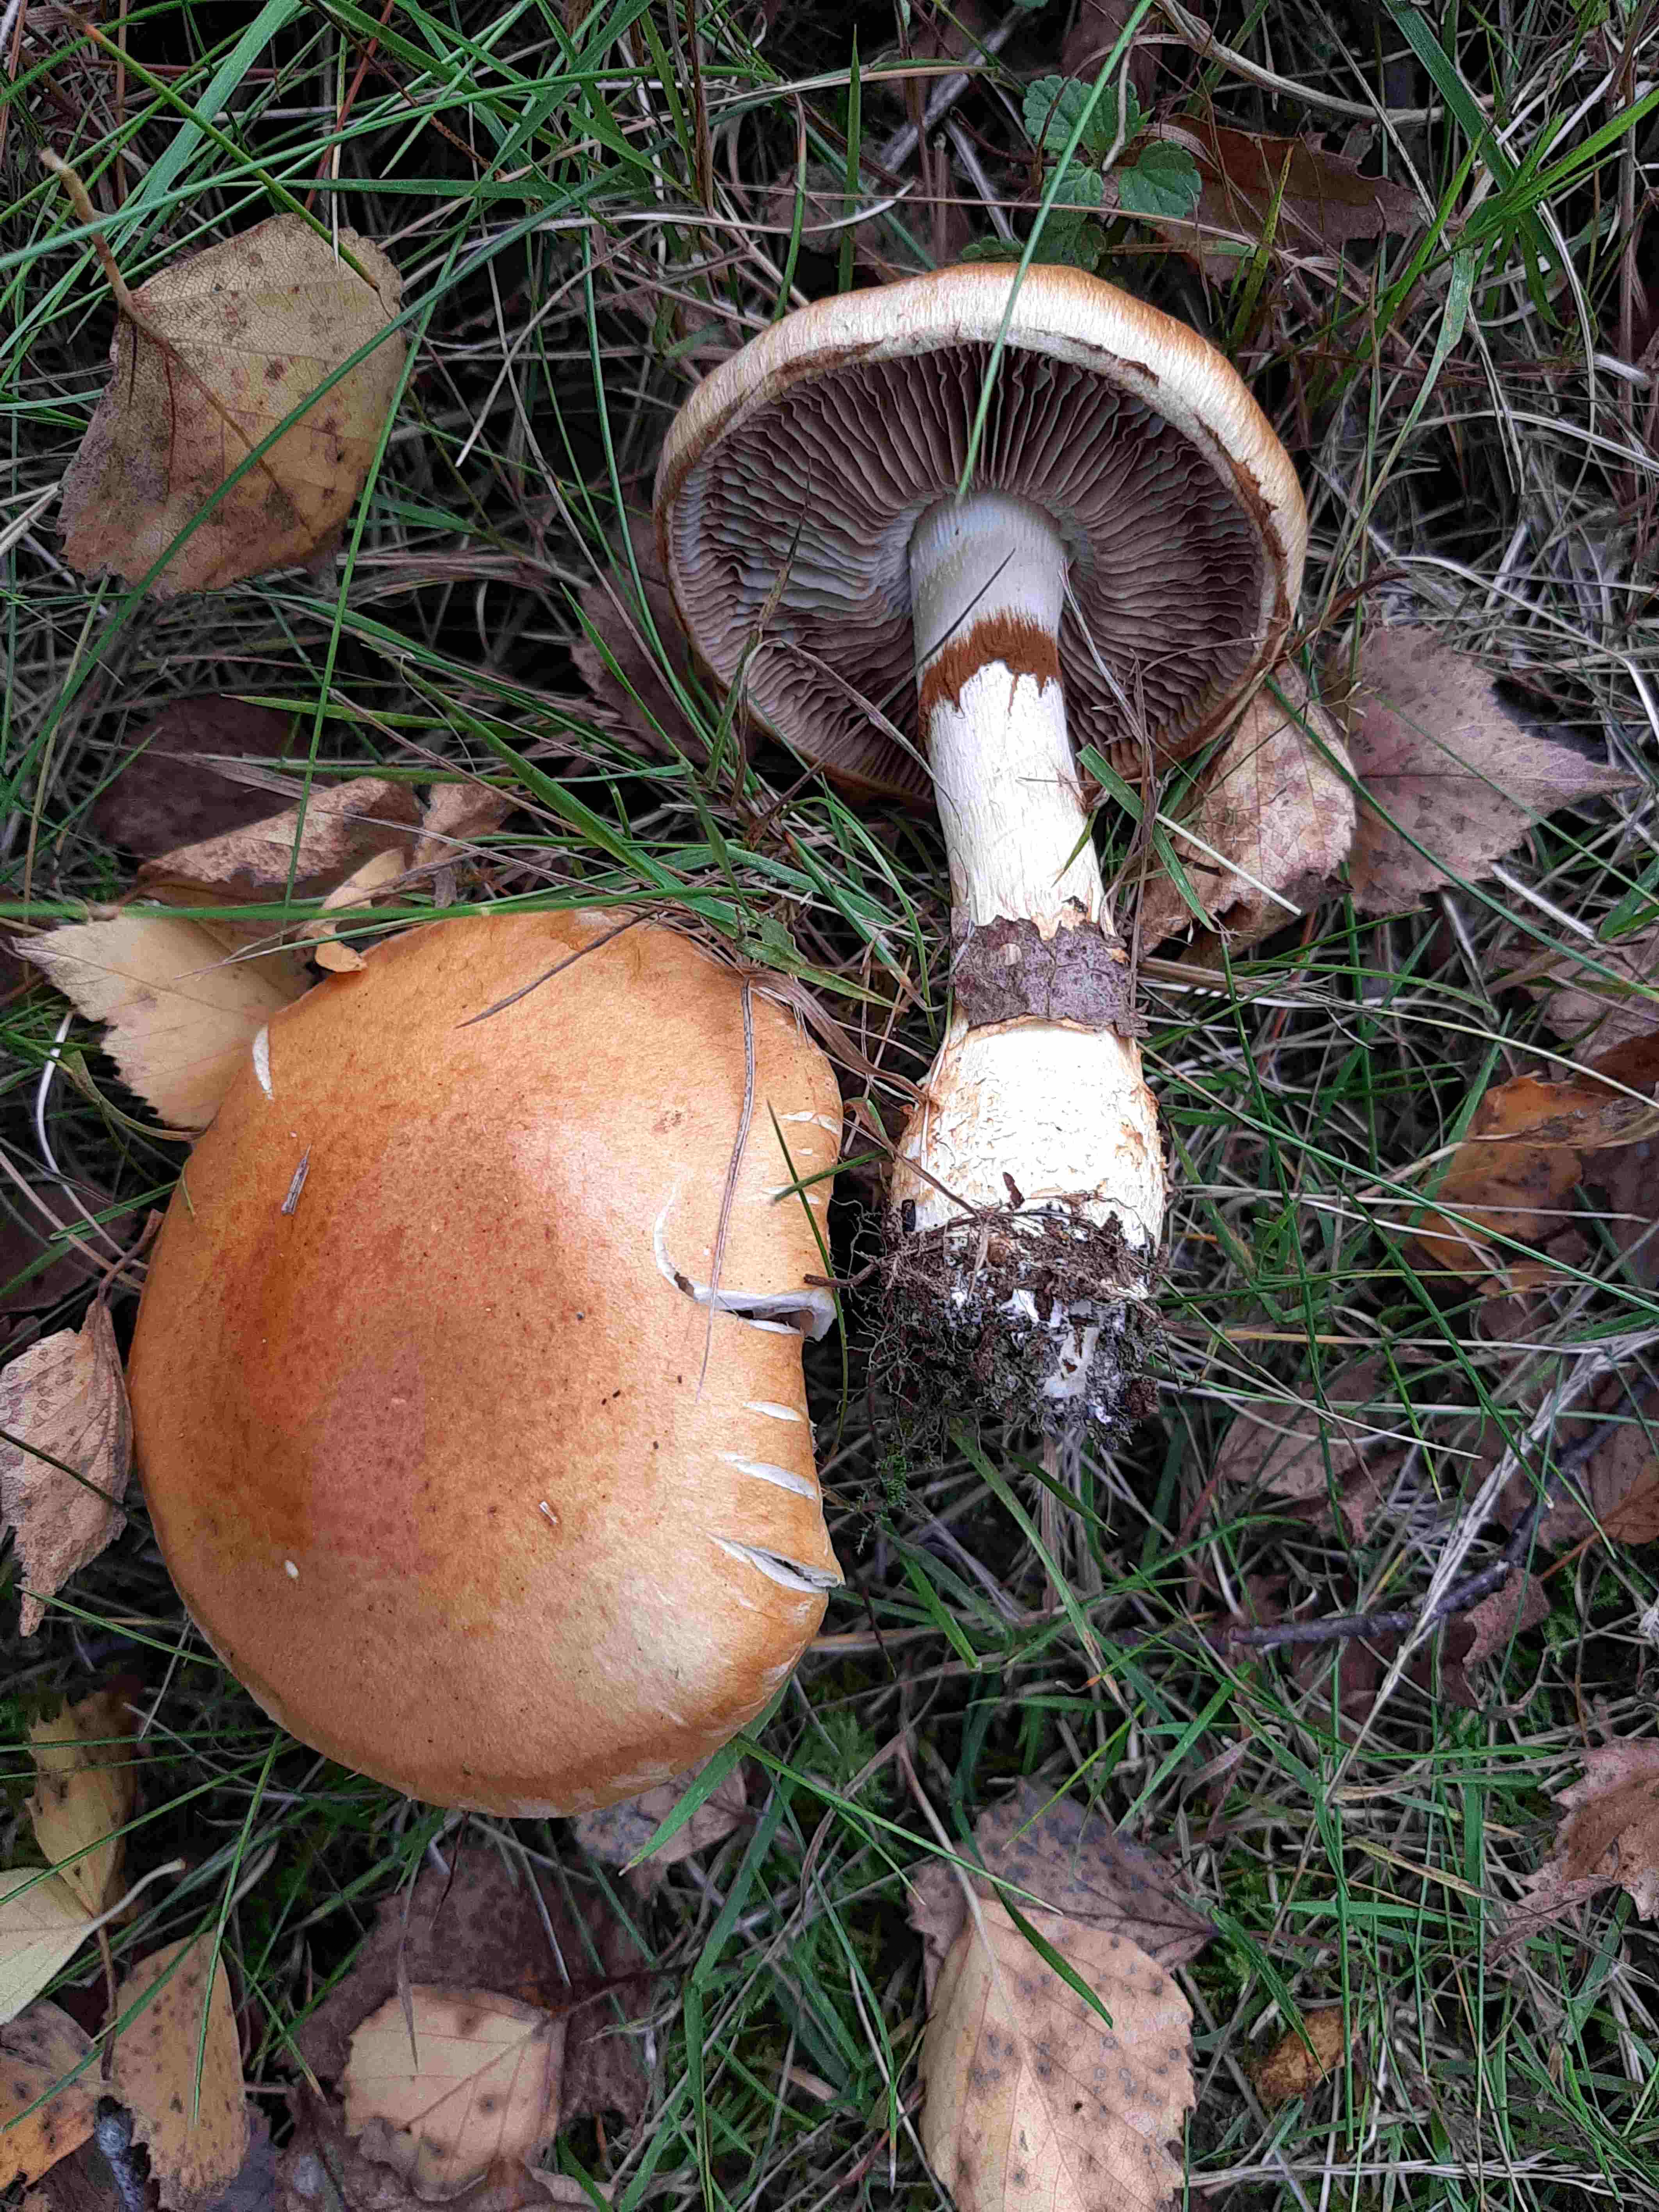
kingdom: Fungi
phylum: Basidiomycota
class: Agaricomycetes
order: Agaricales
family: Cortinariaceae
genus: Phlegmacium
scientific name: Phlegmacium triumphans
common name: gulbæltet slørhat
